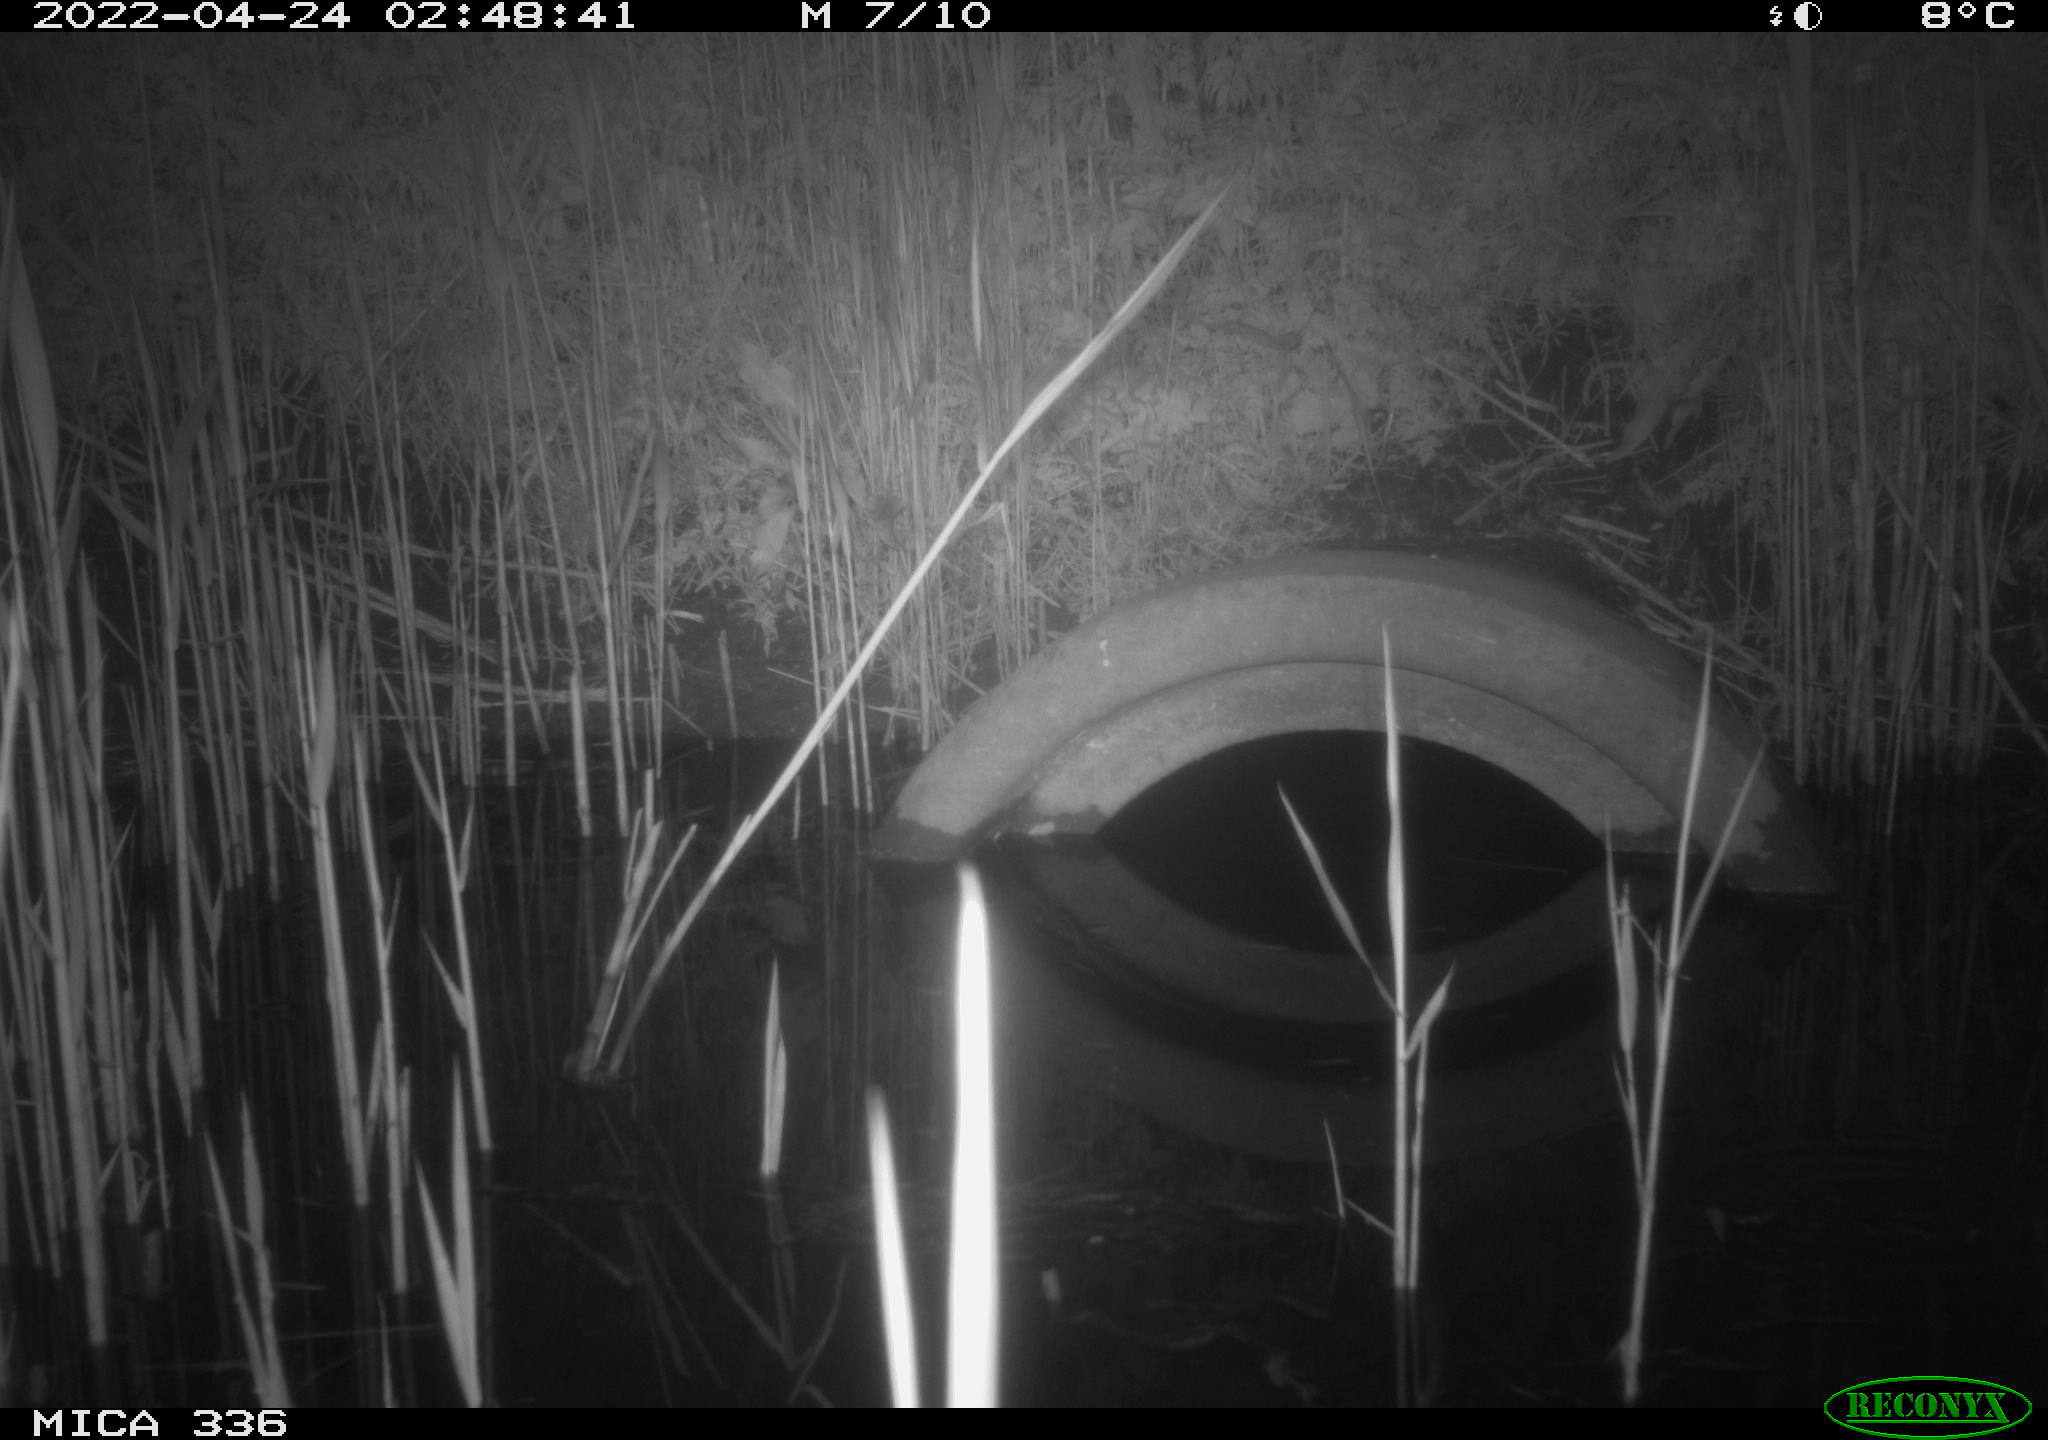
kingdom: Animalia
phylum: Chordata
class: Mammalia
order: Rodentia
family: Muridae
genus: Rattus
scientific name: Rattus norvegicus
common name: Brown rat
